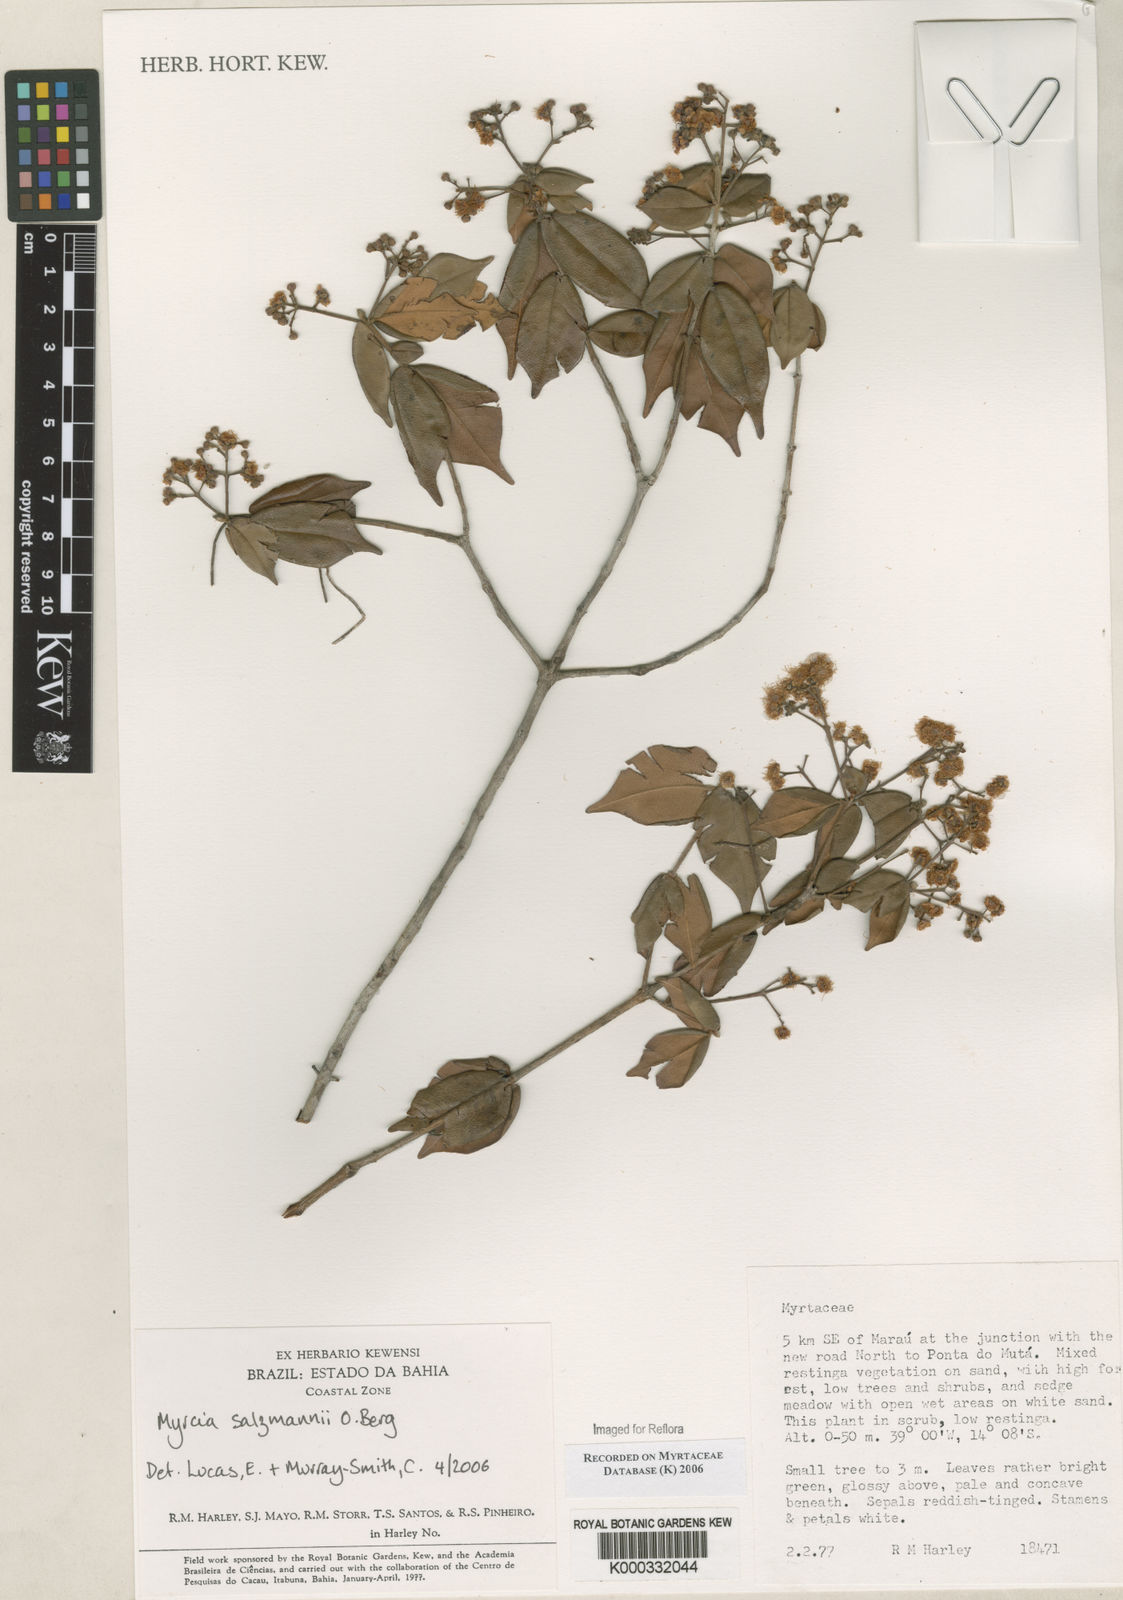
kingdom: Plantae
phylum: Tracheophyta
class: Magnoliopsida
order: Myrtales
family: Myrtaceae
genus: Myrcia
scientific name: Myrcia salzmannii
